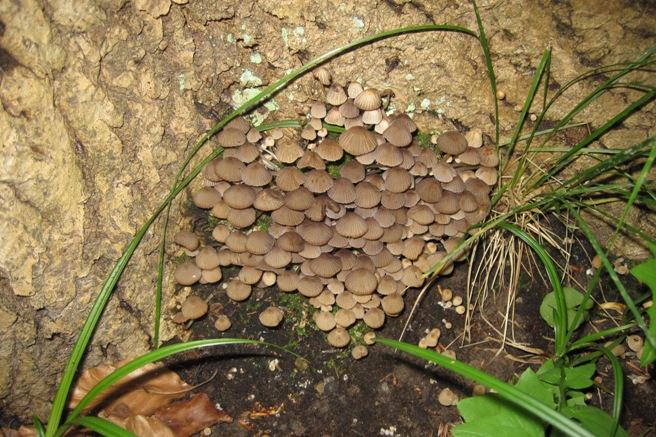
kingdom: Fungi
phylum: Basidiomycota
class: Agaricomycetes
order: Agaricales
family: Psathyrellaceae
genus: Coprinellus
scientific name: Coprinellus disseminatus
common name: bredsået blækhat
